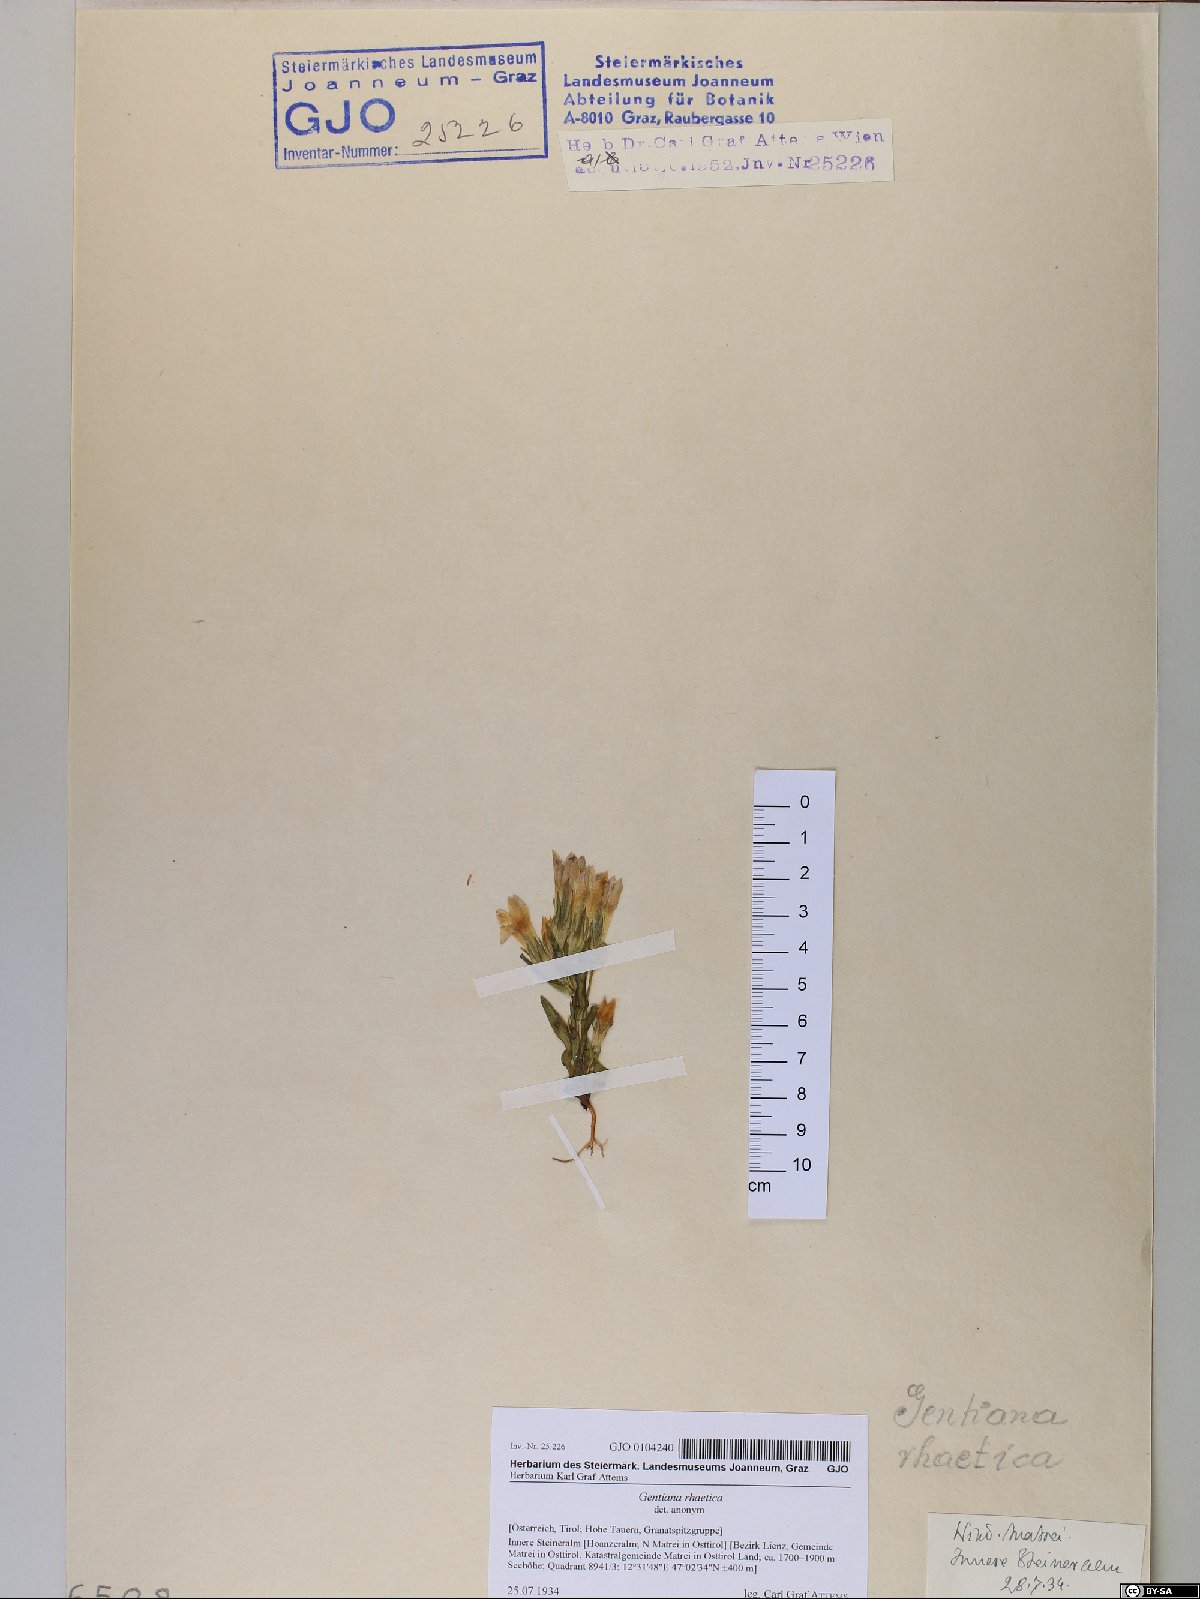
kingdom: Plantae
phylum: Tracheophyta
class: Magnoliopsida
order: Gentianales
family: Gentianaceae
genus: Gentianella
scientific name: Gentianella rhaetica
